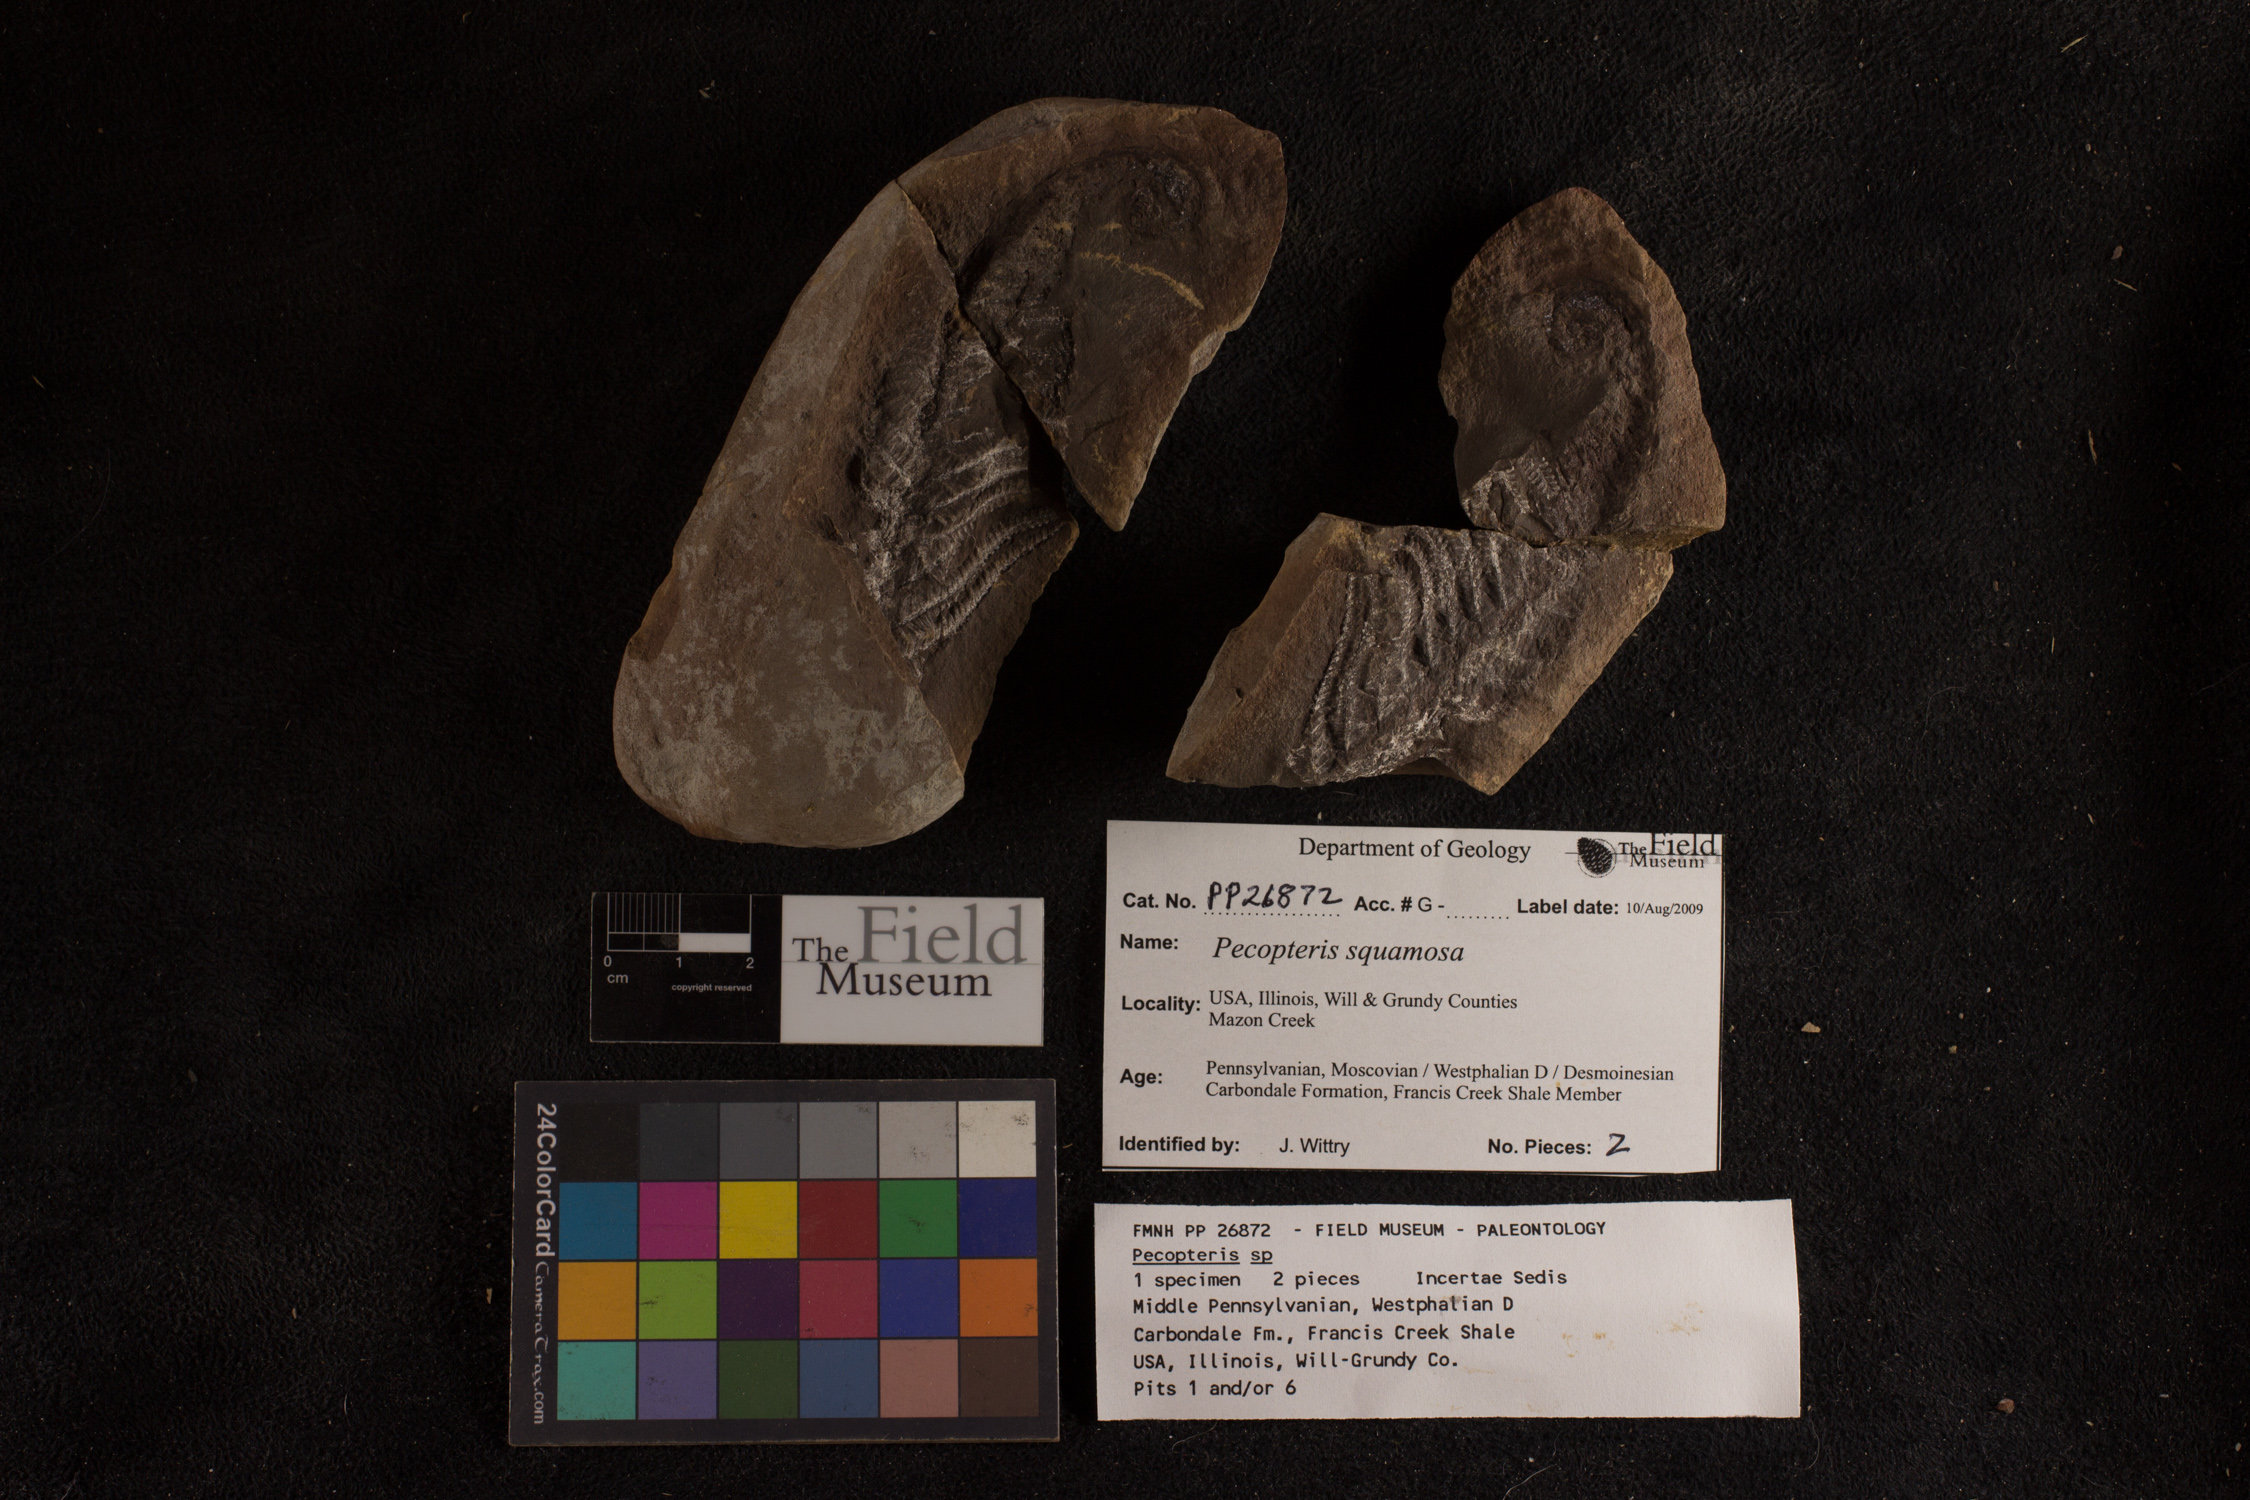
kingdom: Plantae
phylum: Tracheophyta
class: Polypodiopsida
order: Marattiales
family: Asterothecaceae
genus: Pecopteris
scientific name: Pecopteris
